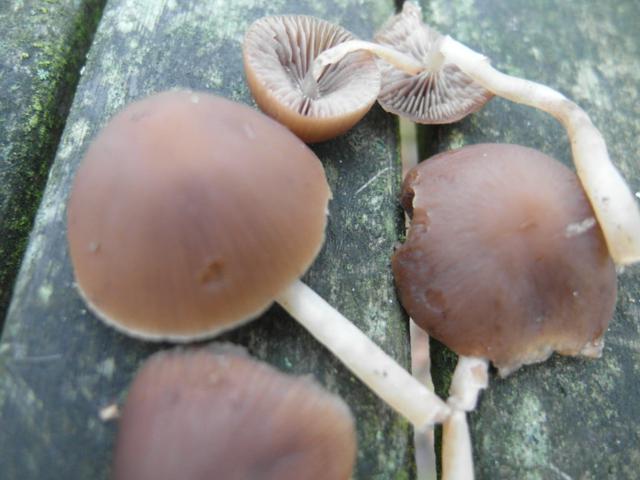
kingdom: Fungi
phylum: Basidiomycota
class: Agaricomycetes
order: Agaricales
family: Psathyrellaceae
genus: Psathyrella
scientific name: Psathyrella dicrani
